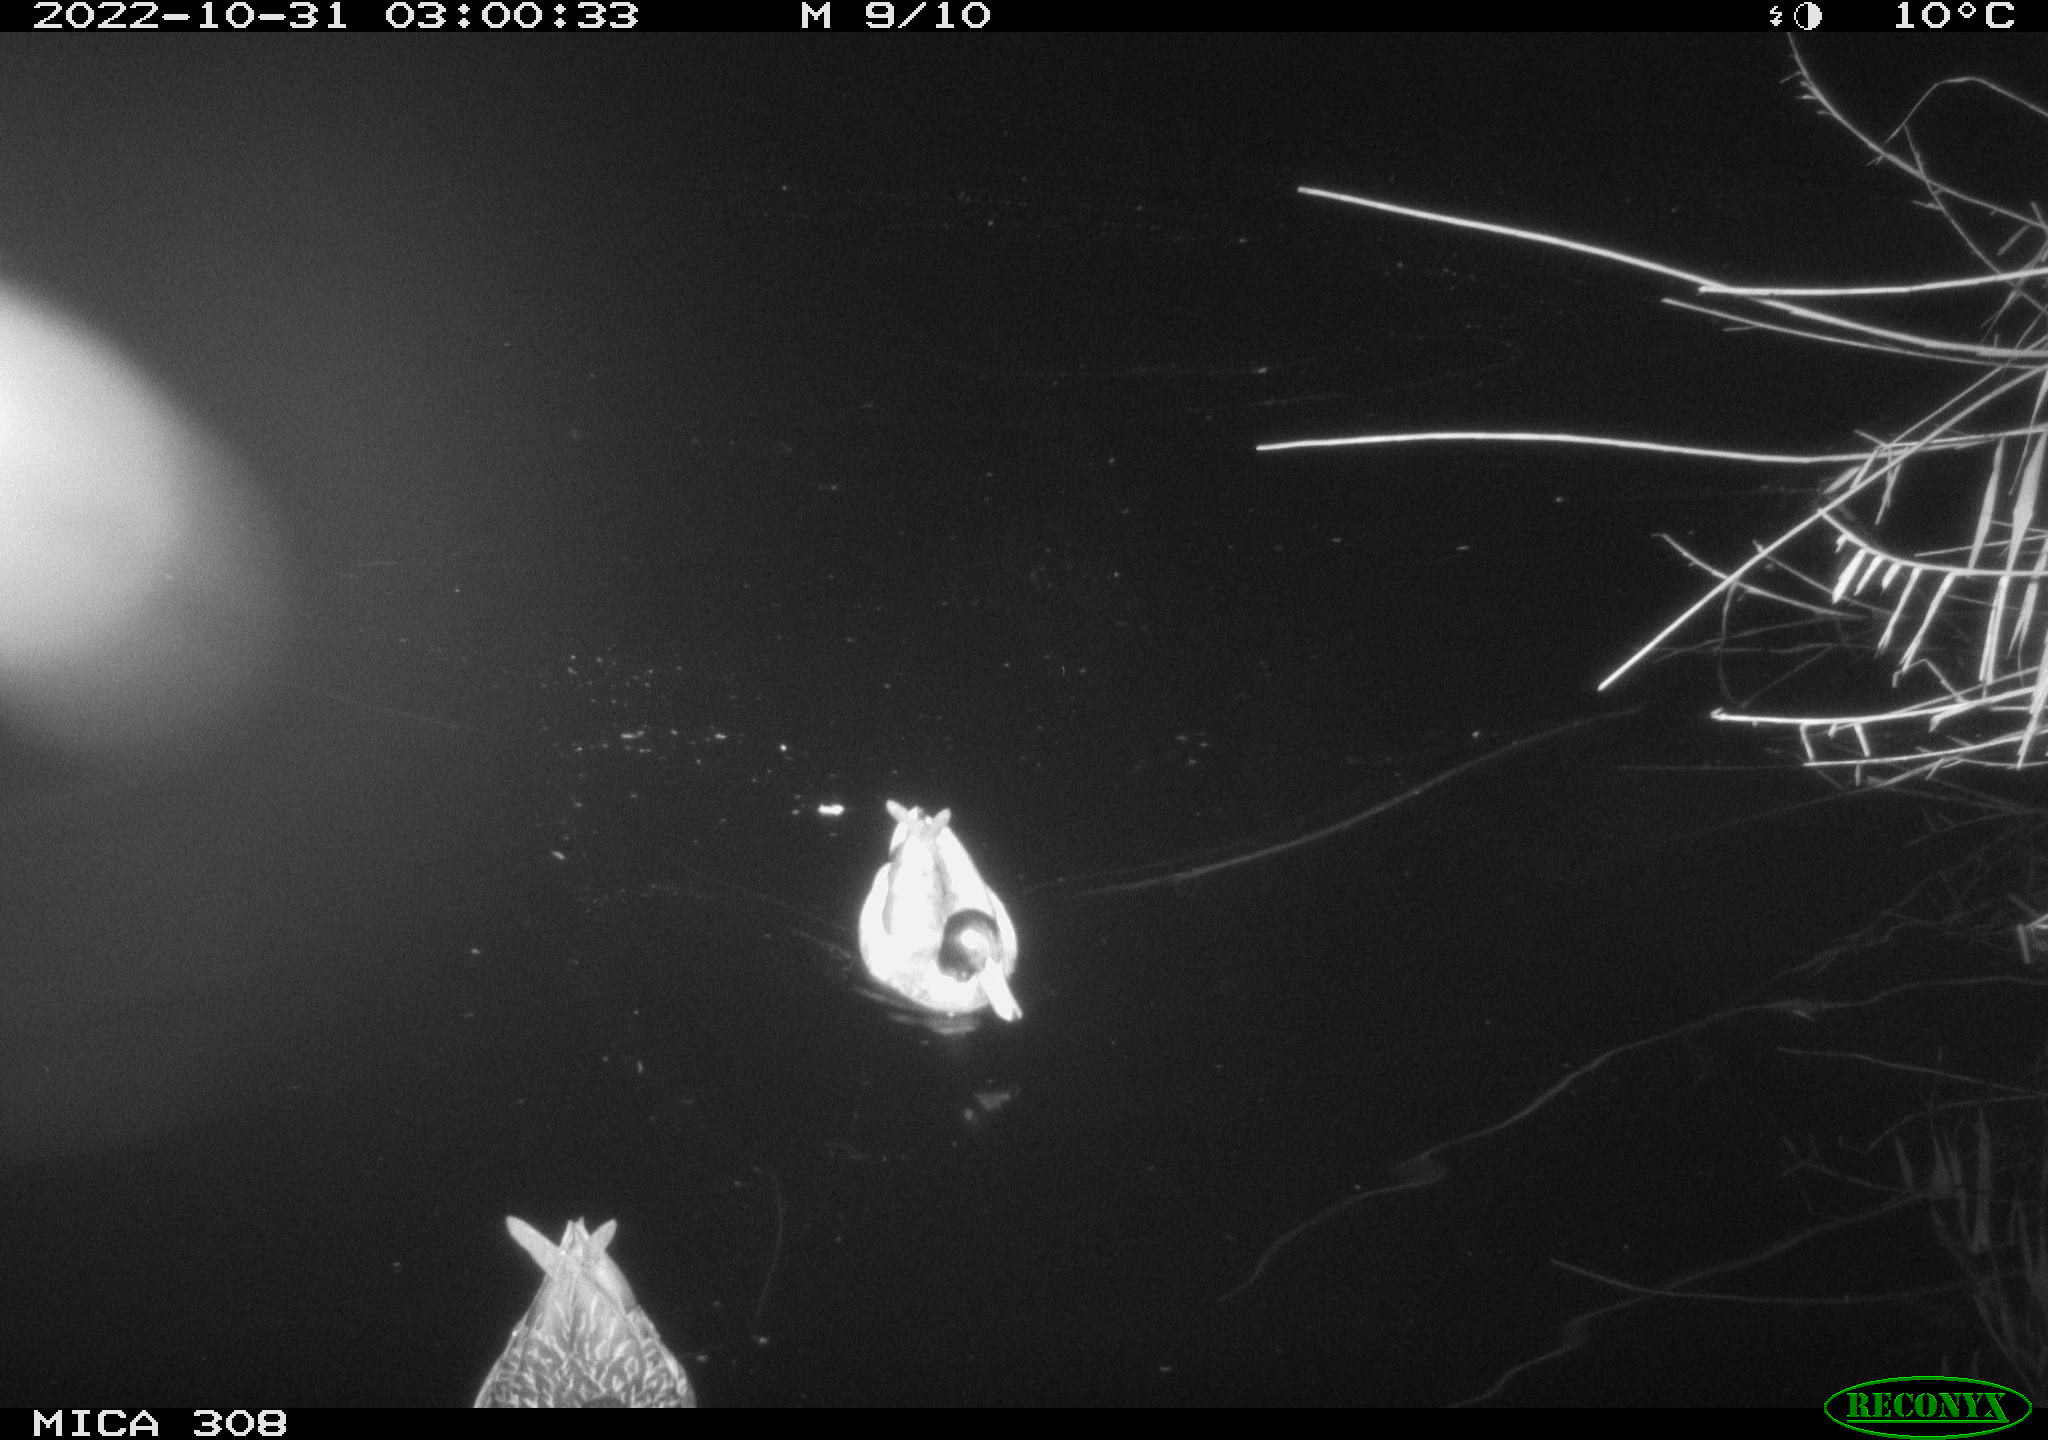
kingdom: Animalia
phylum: Chordata
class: Aves
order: Anseriformes
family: Anatidae
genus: Anas
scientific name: Anas
